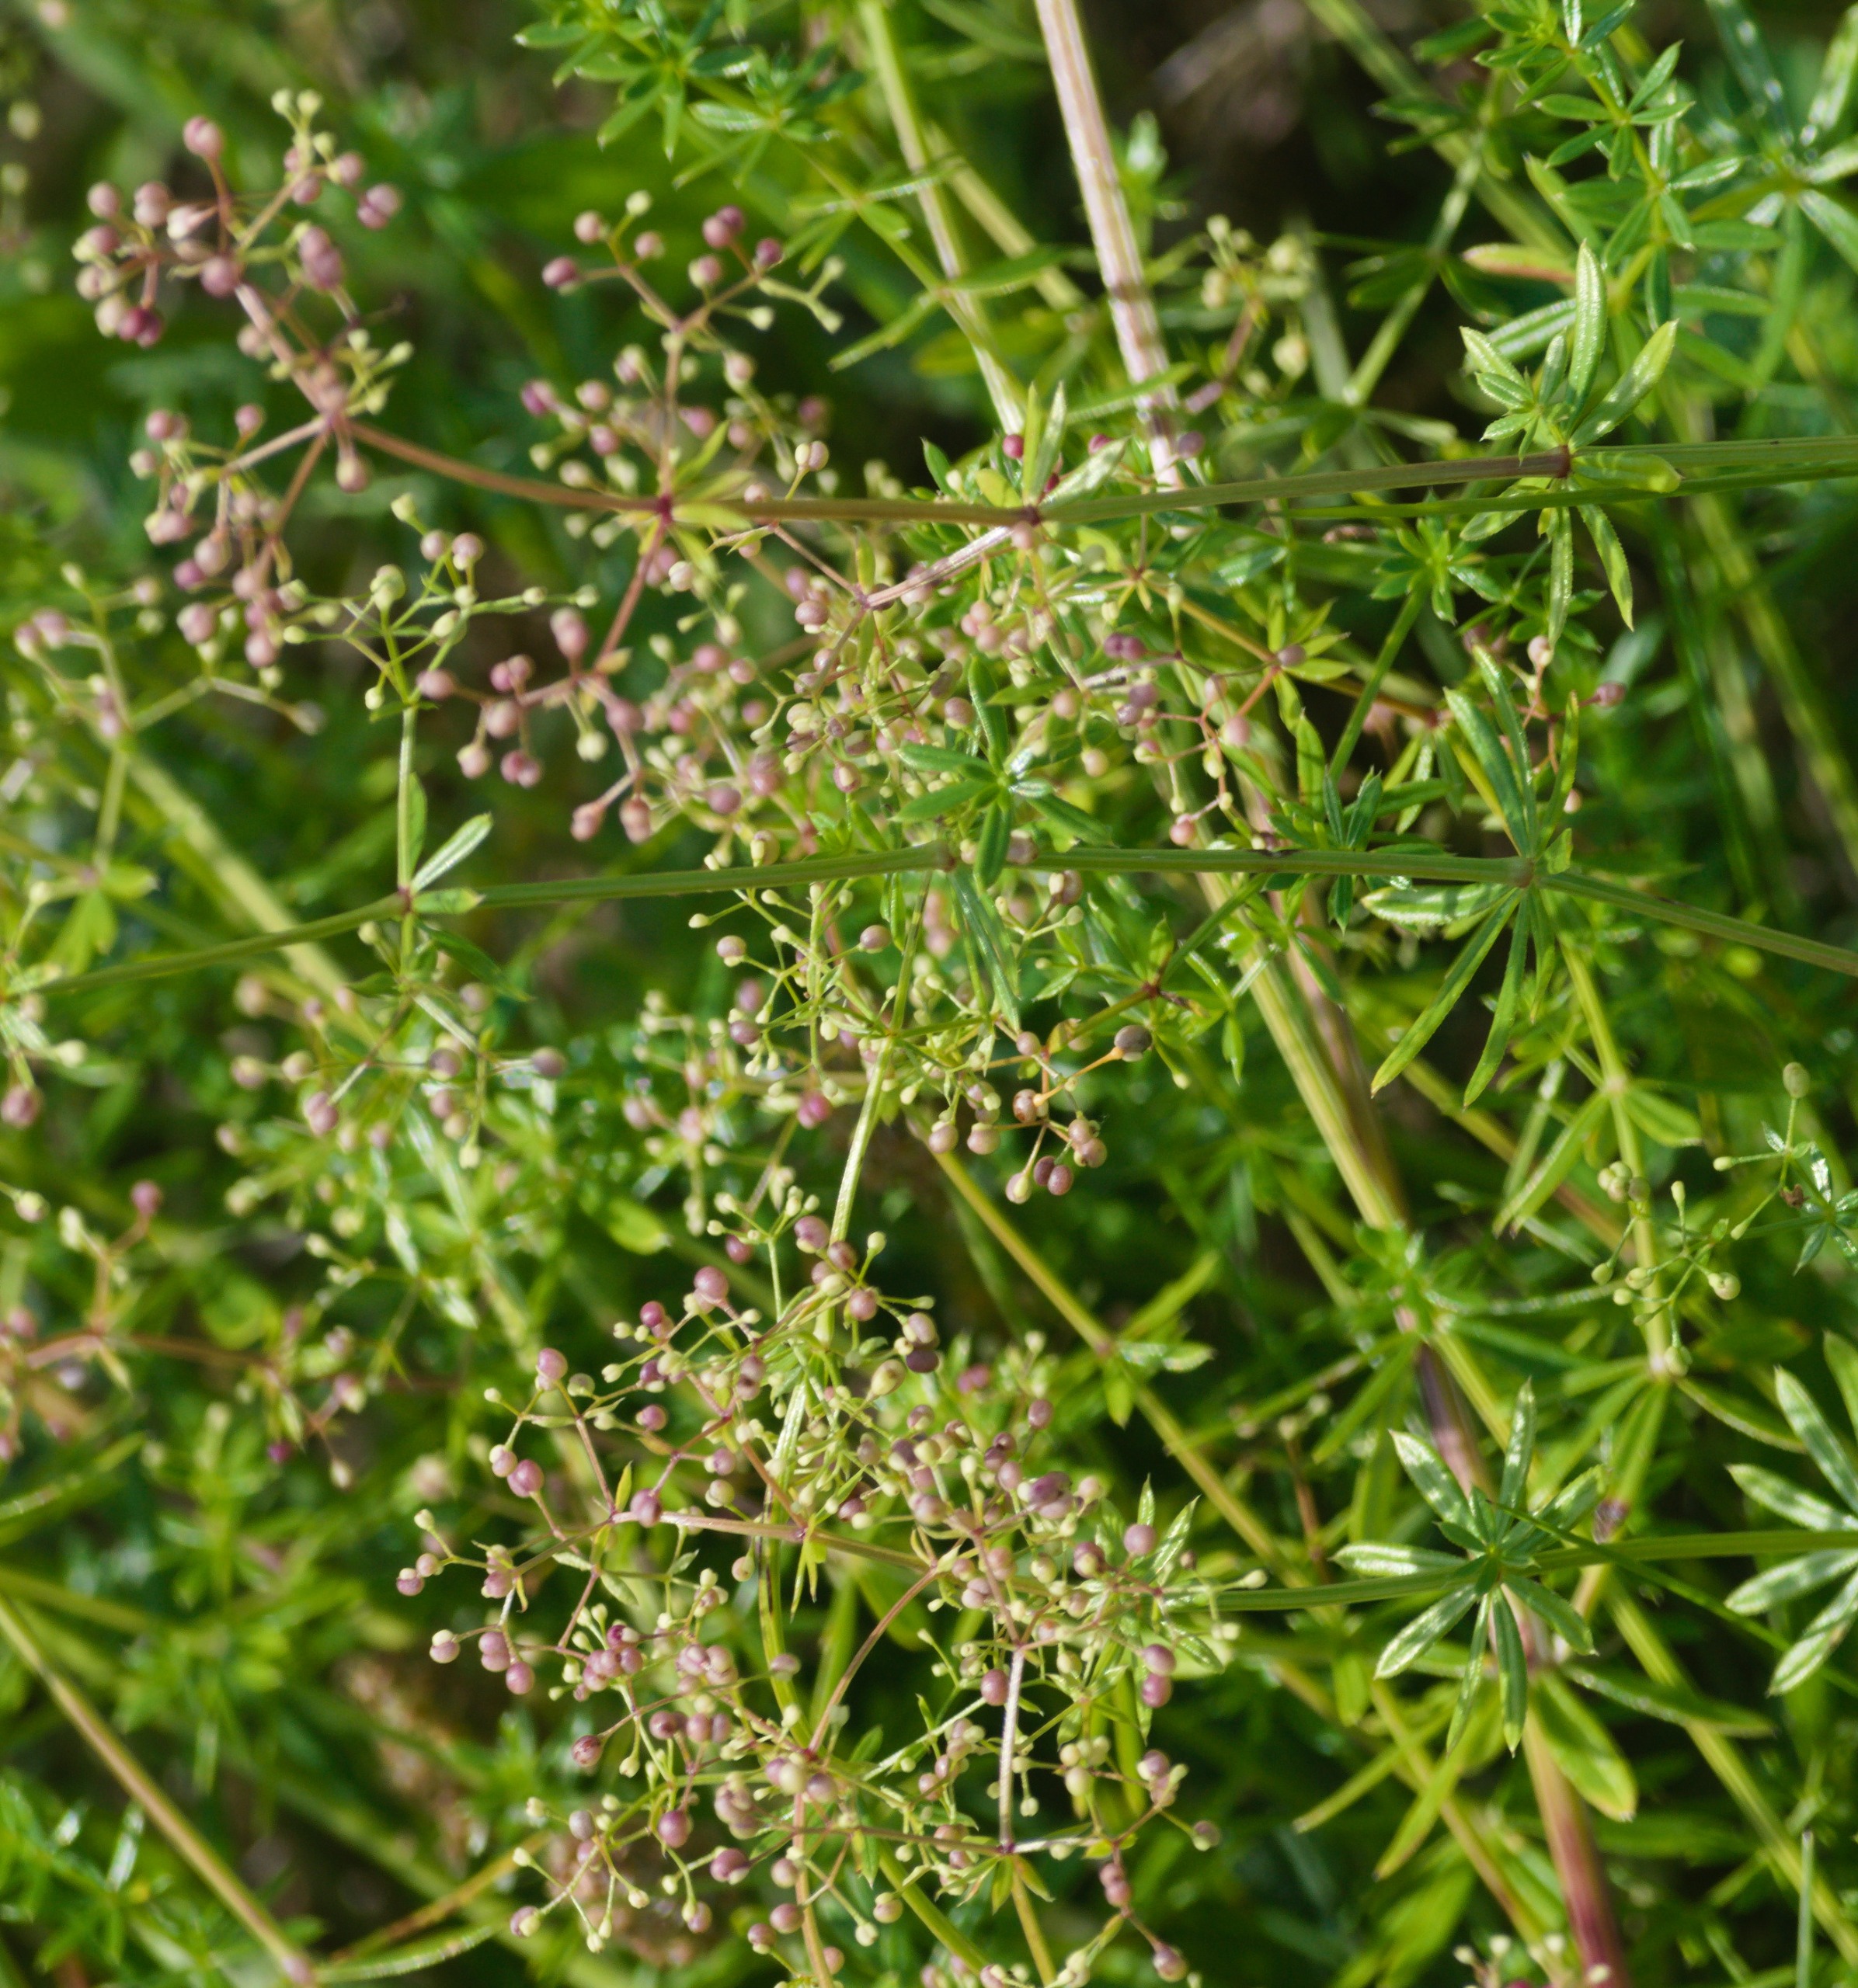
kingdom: Plantae
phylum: Tracheophyta
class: Magnoliopsida
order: Gentianales
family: Rubiaceae
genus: Galium
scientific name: Galium mollugo
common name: Hvid snerre
